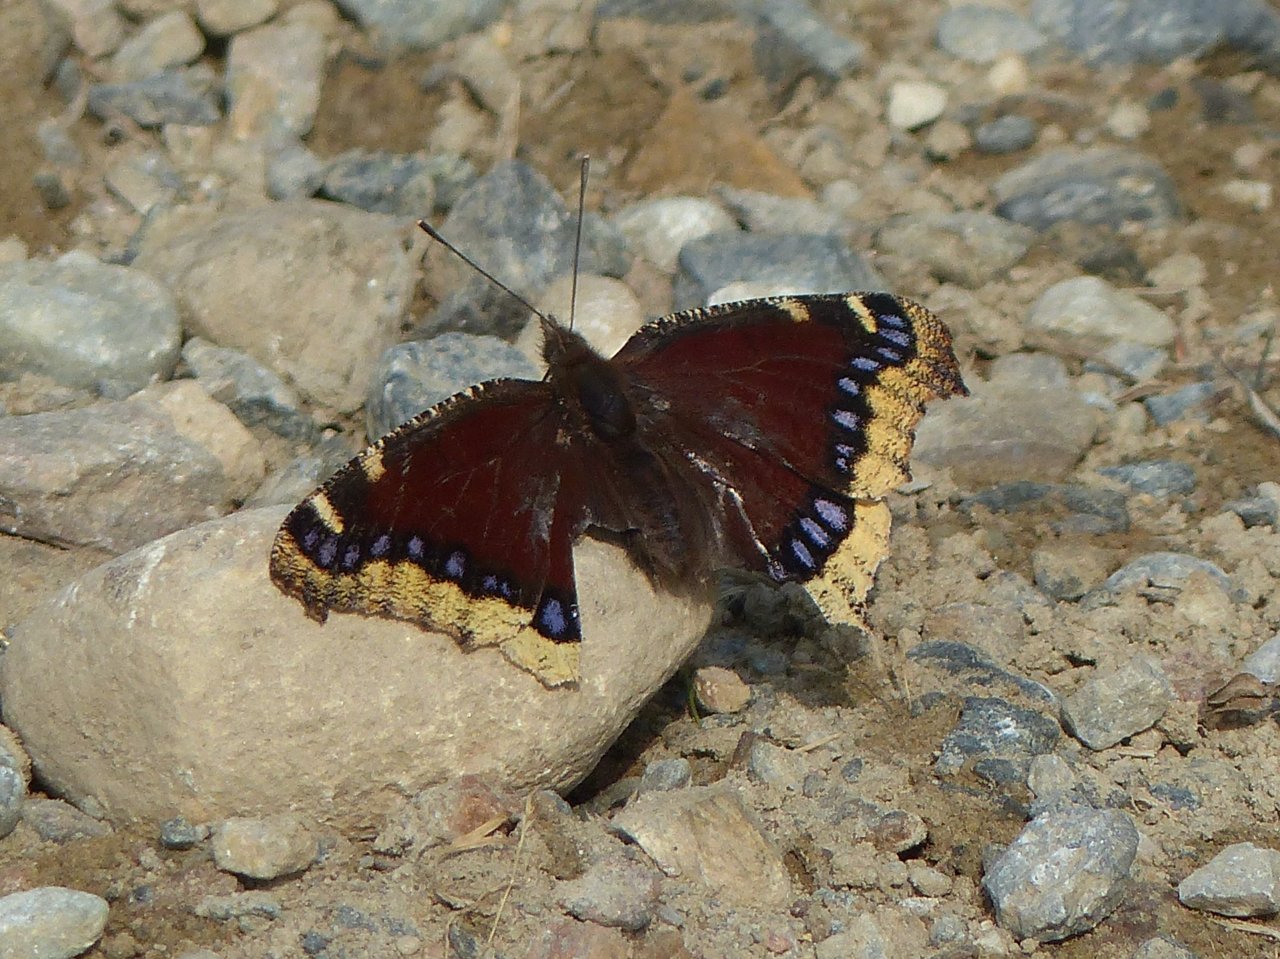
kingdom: Animalia
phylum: Arthropoda
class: Insecta
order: Lepidoptera
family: Nymphalidae
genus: Nymphalis
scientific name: Nymphalis antiopa
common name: Mourning Cloak
